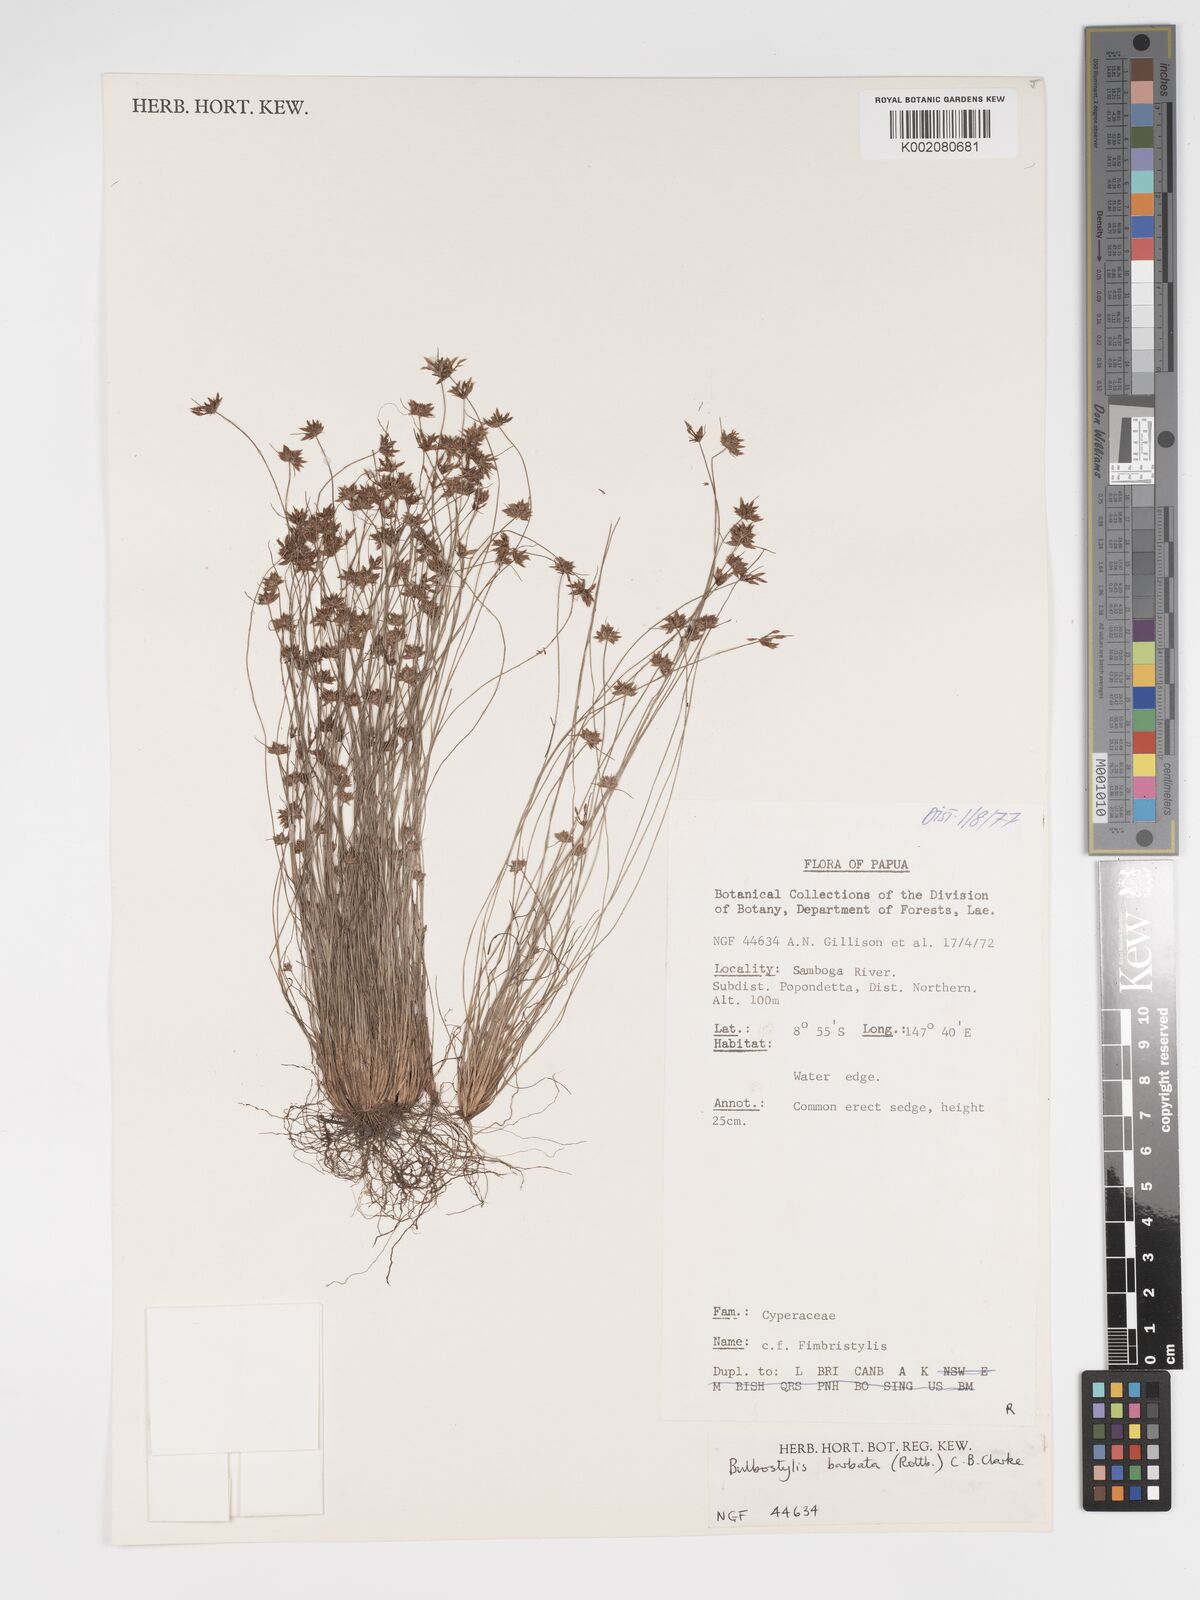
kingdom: Plantae
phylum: Tracheophyta
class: Liliopsida
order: Poales
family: Cyperaceae
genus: Bulbostylis
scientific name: Bulbostylis barbata
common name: Watergrass
